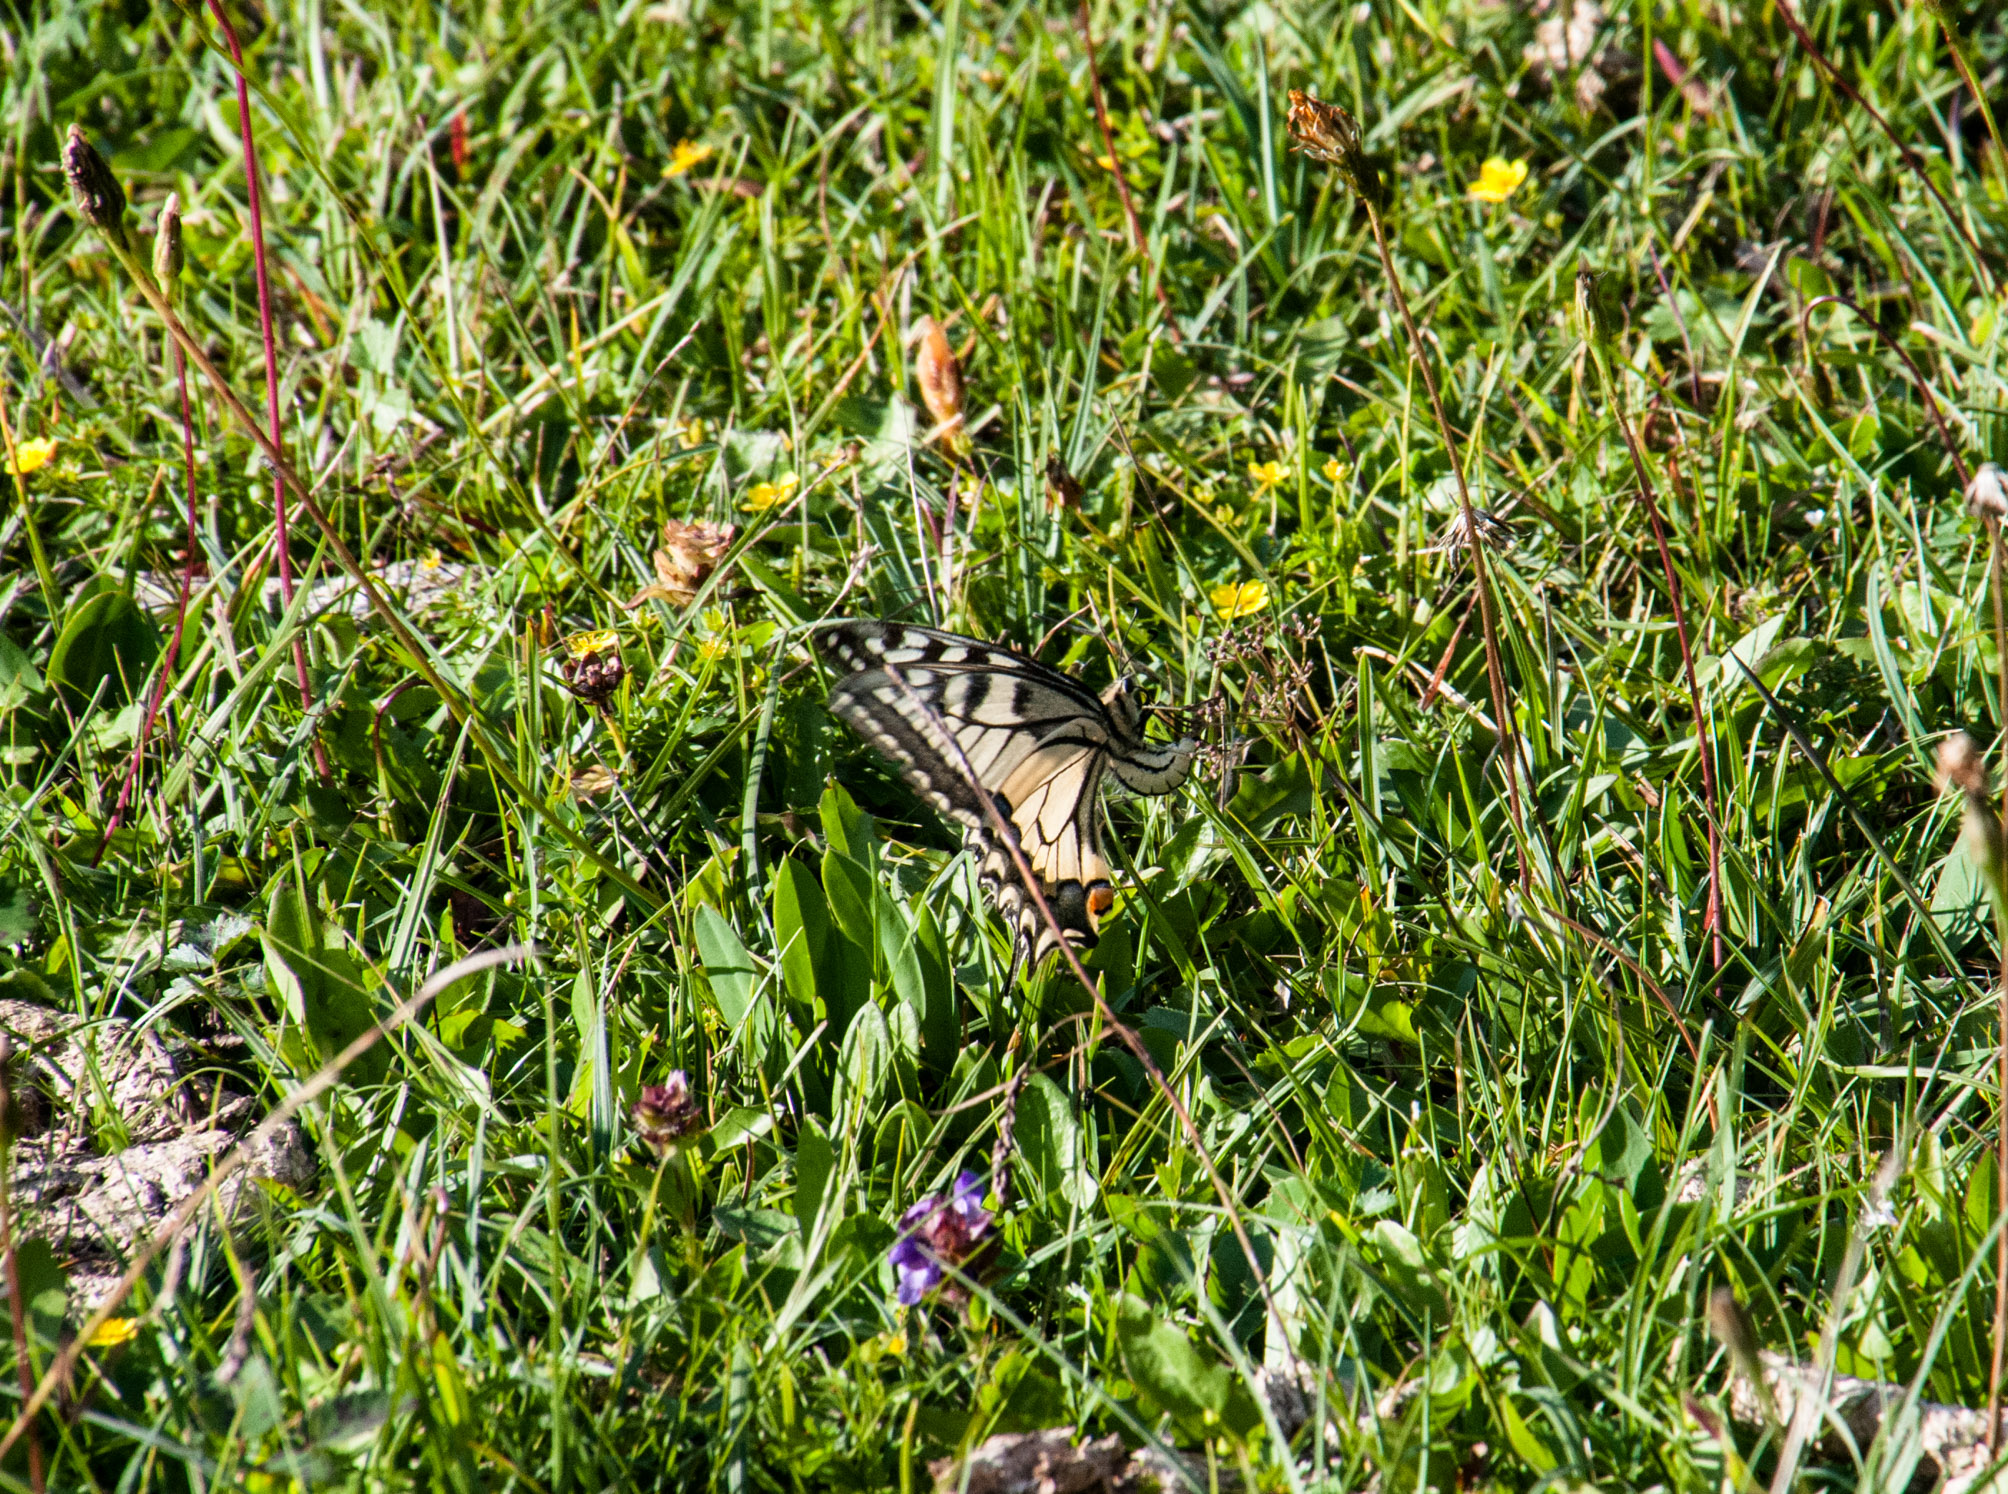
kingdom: Animalia
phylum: Arthropoda
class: Insecta
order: Lepidoptera
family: Papilionidae
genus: Papilio
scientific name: Papilio machaon
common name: Swallowtail
